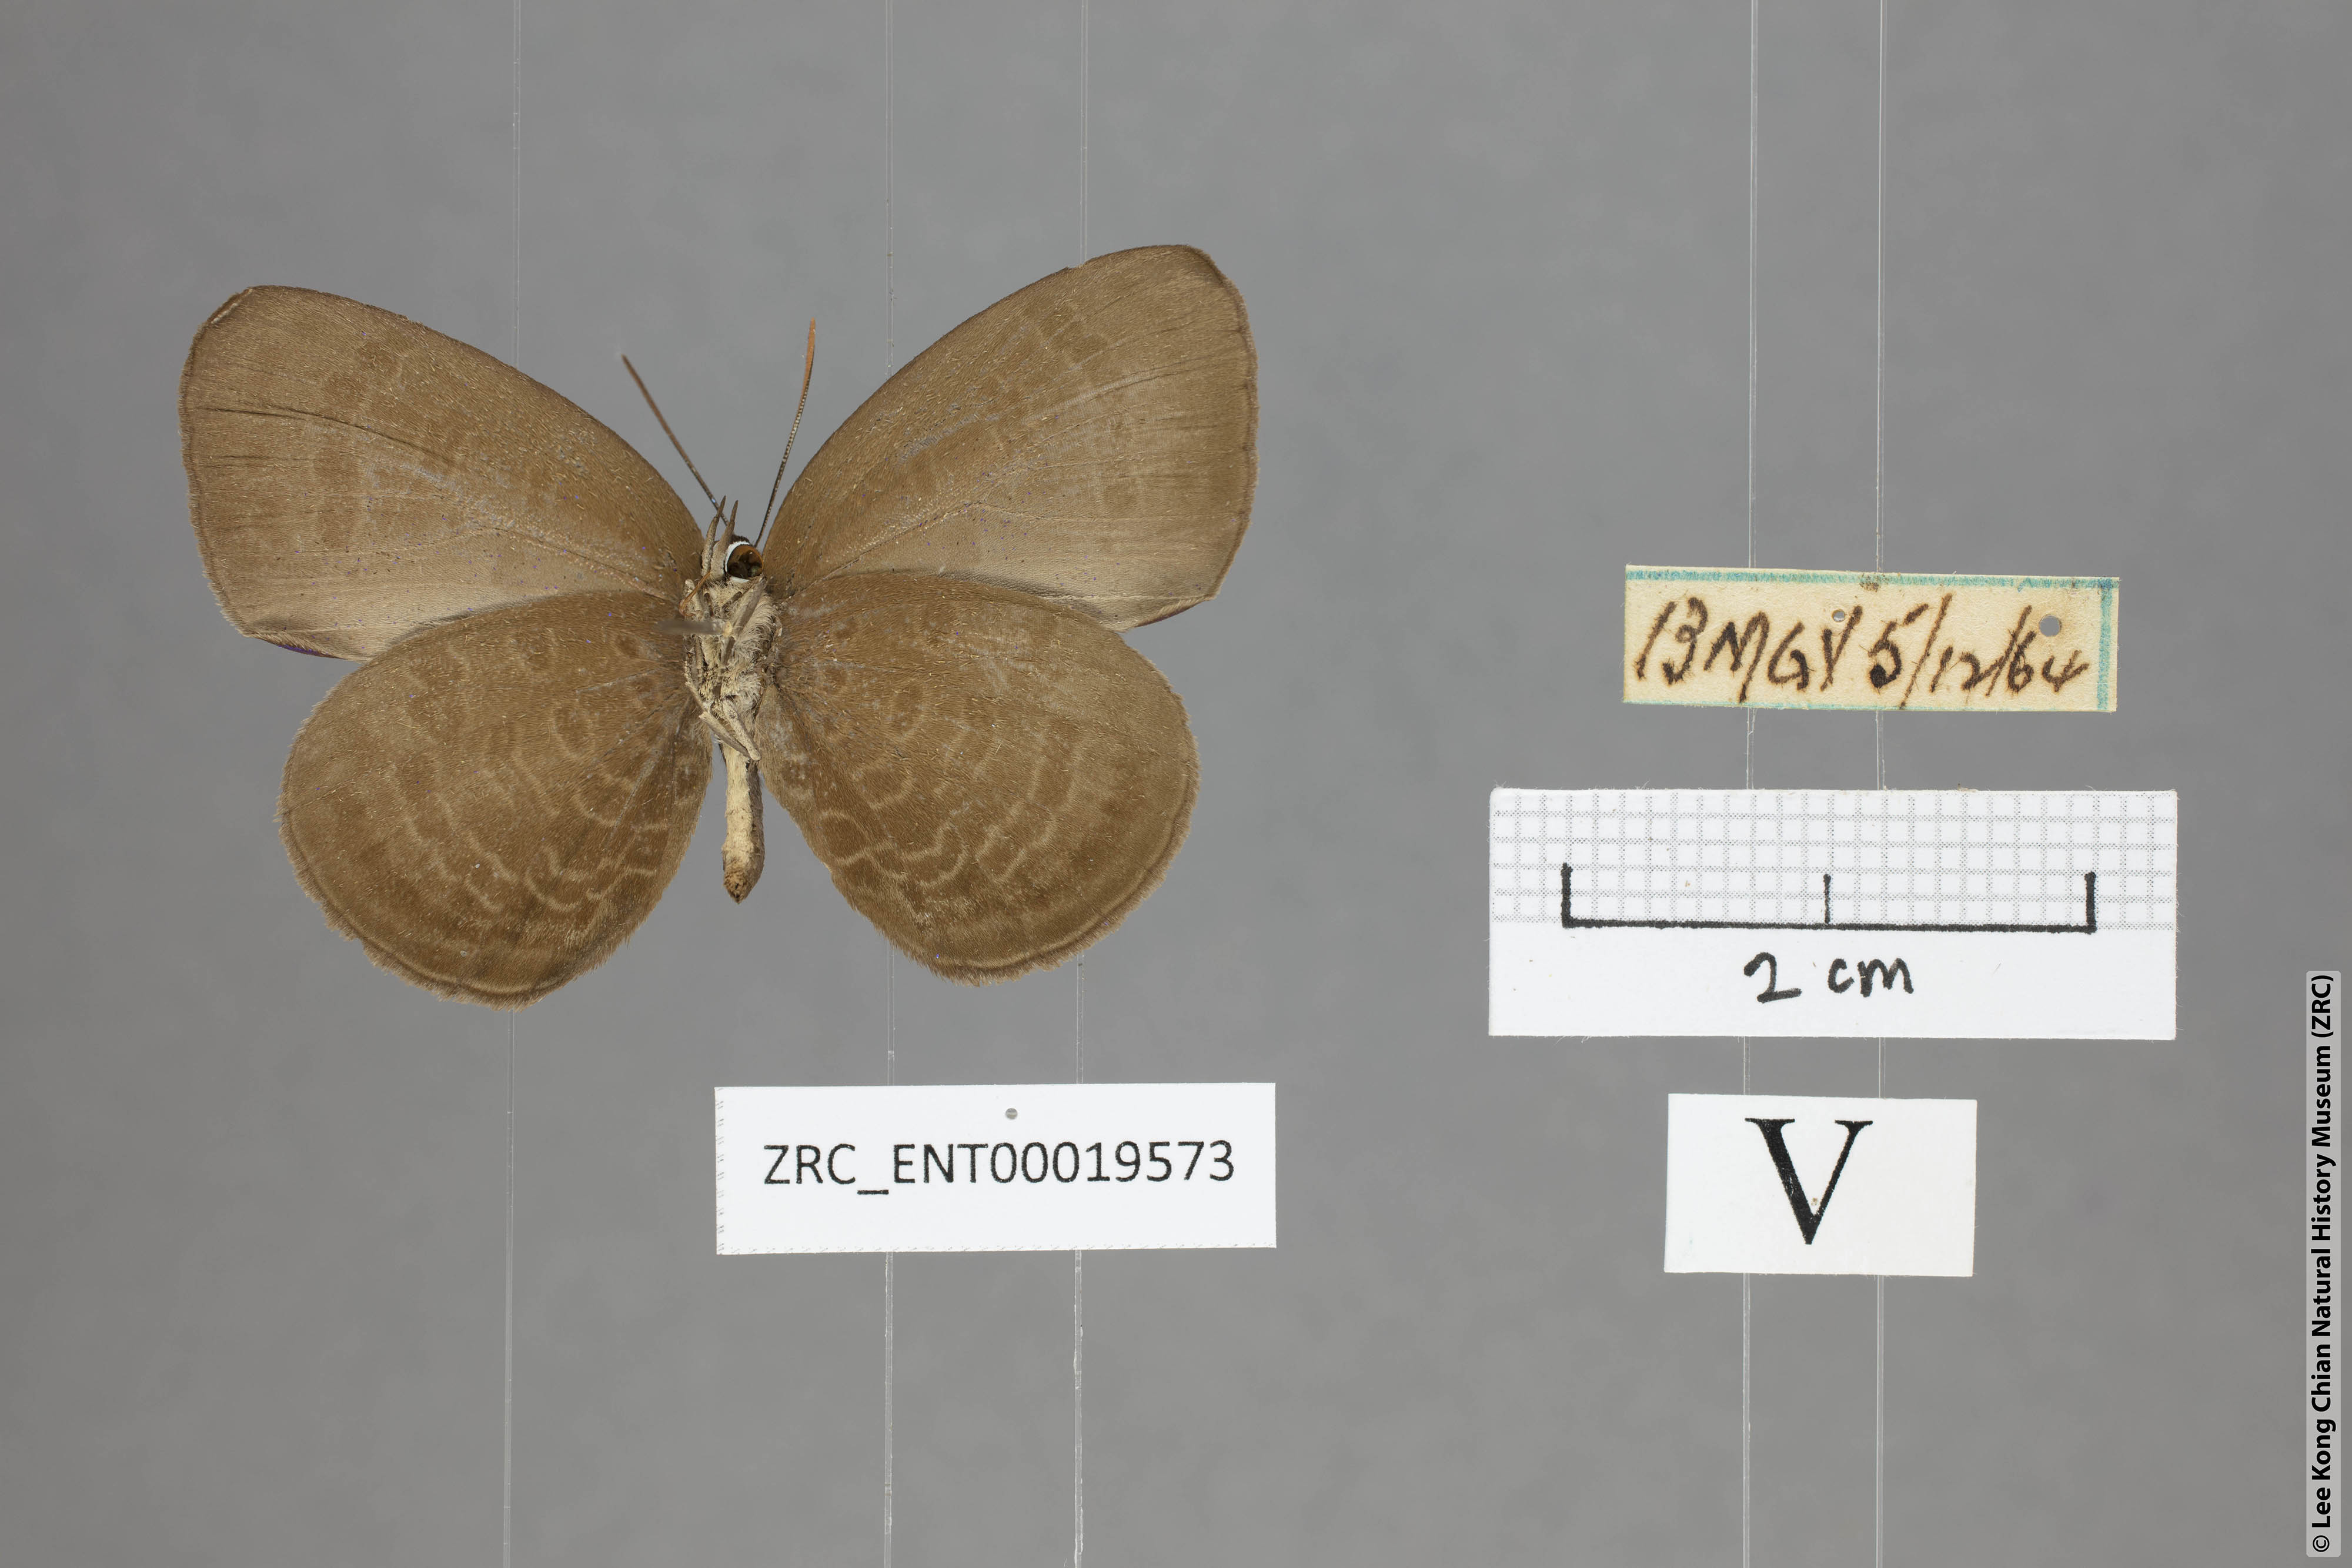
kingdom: Animalia
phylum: Arthropoda
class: Insecta
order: Lepidoptera
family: Lycaenidae
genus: Arhopala
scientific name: Arhopala inornata
